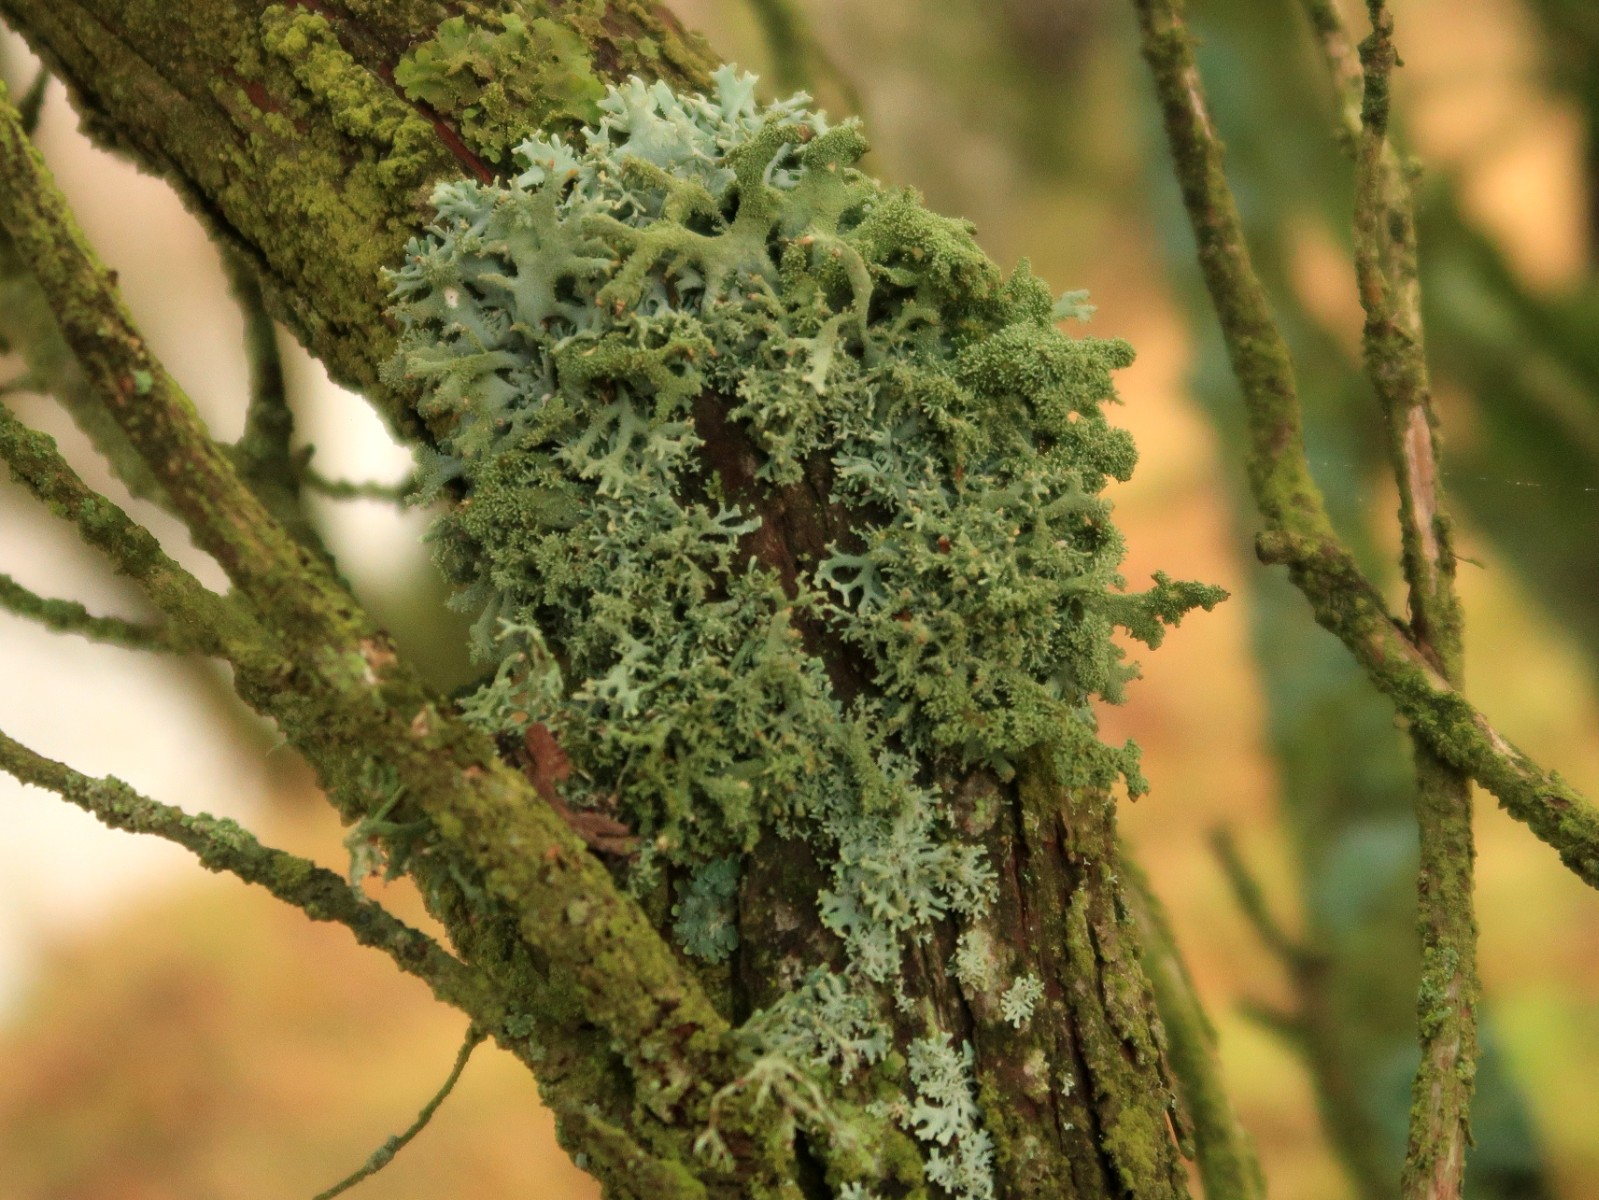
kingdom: Fungi
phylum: Ascomycota
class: Lecanoromycetes
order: Lecanorales
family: Parmeliaceae
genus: Pseudevernia
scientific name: Pseudevernia furfuracea
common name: grå fyrrelav
